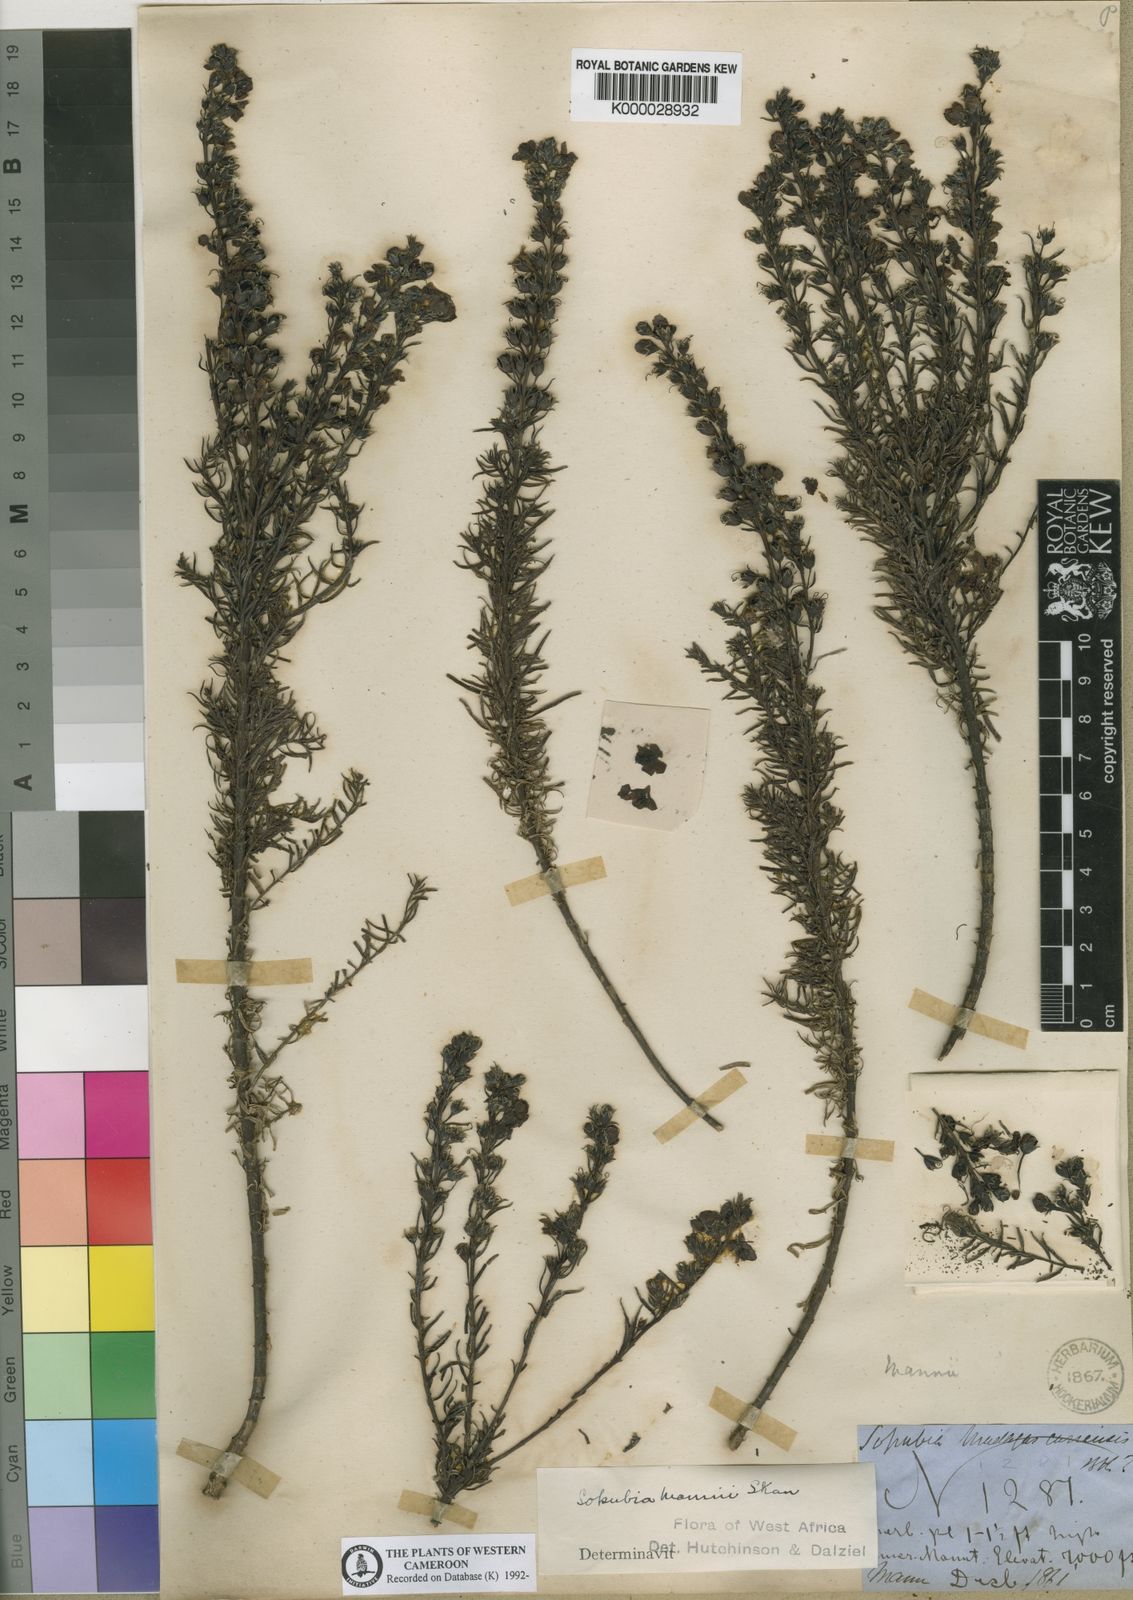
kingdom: Plantae
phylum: Tracheophyta
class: Magnoliopsida
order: Lamiales
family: Orobanchaceae
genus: Sopubia
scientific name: Sopubia mannii
